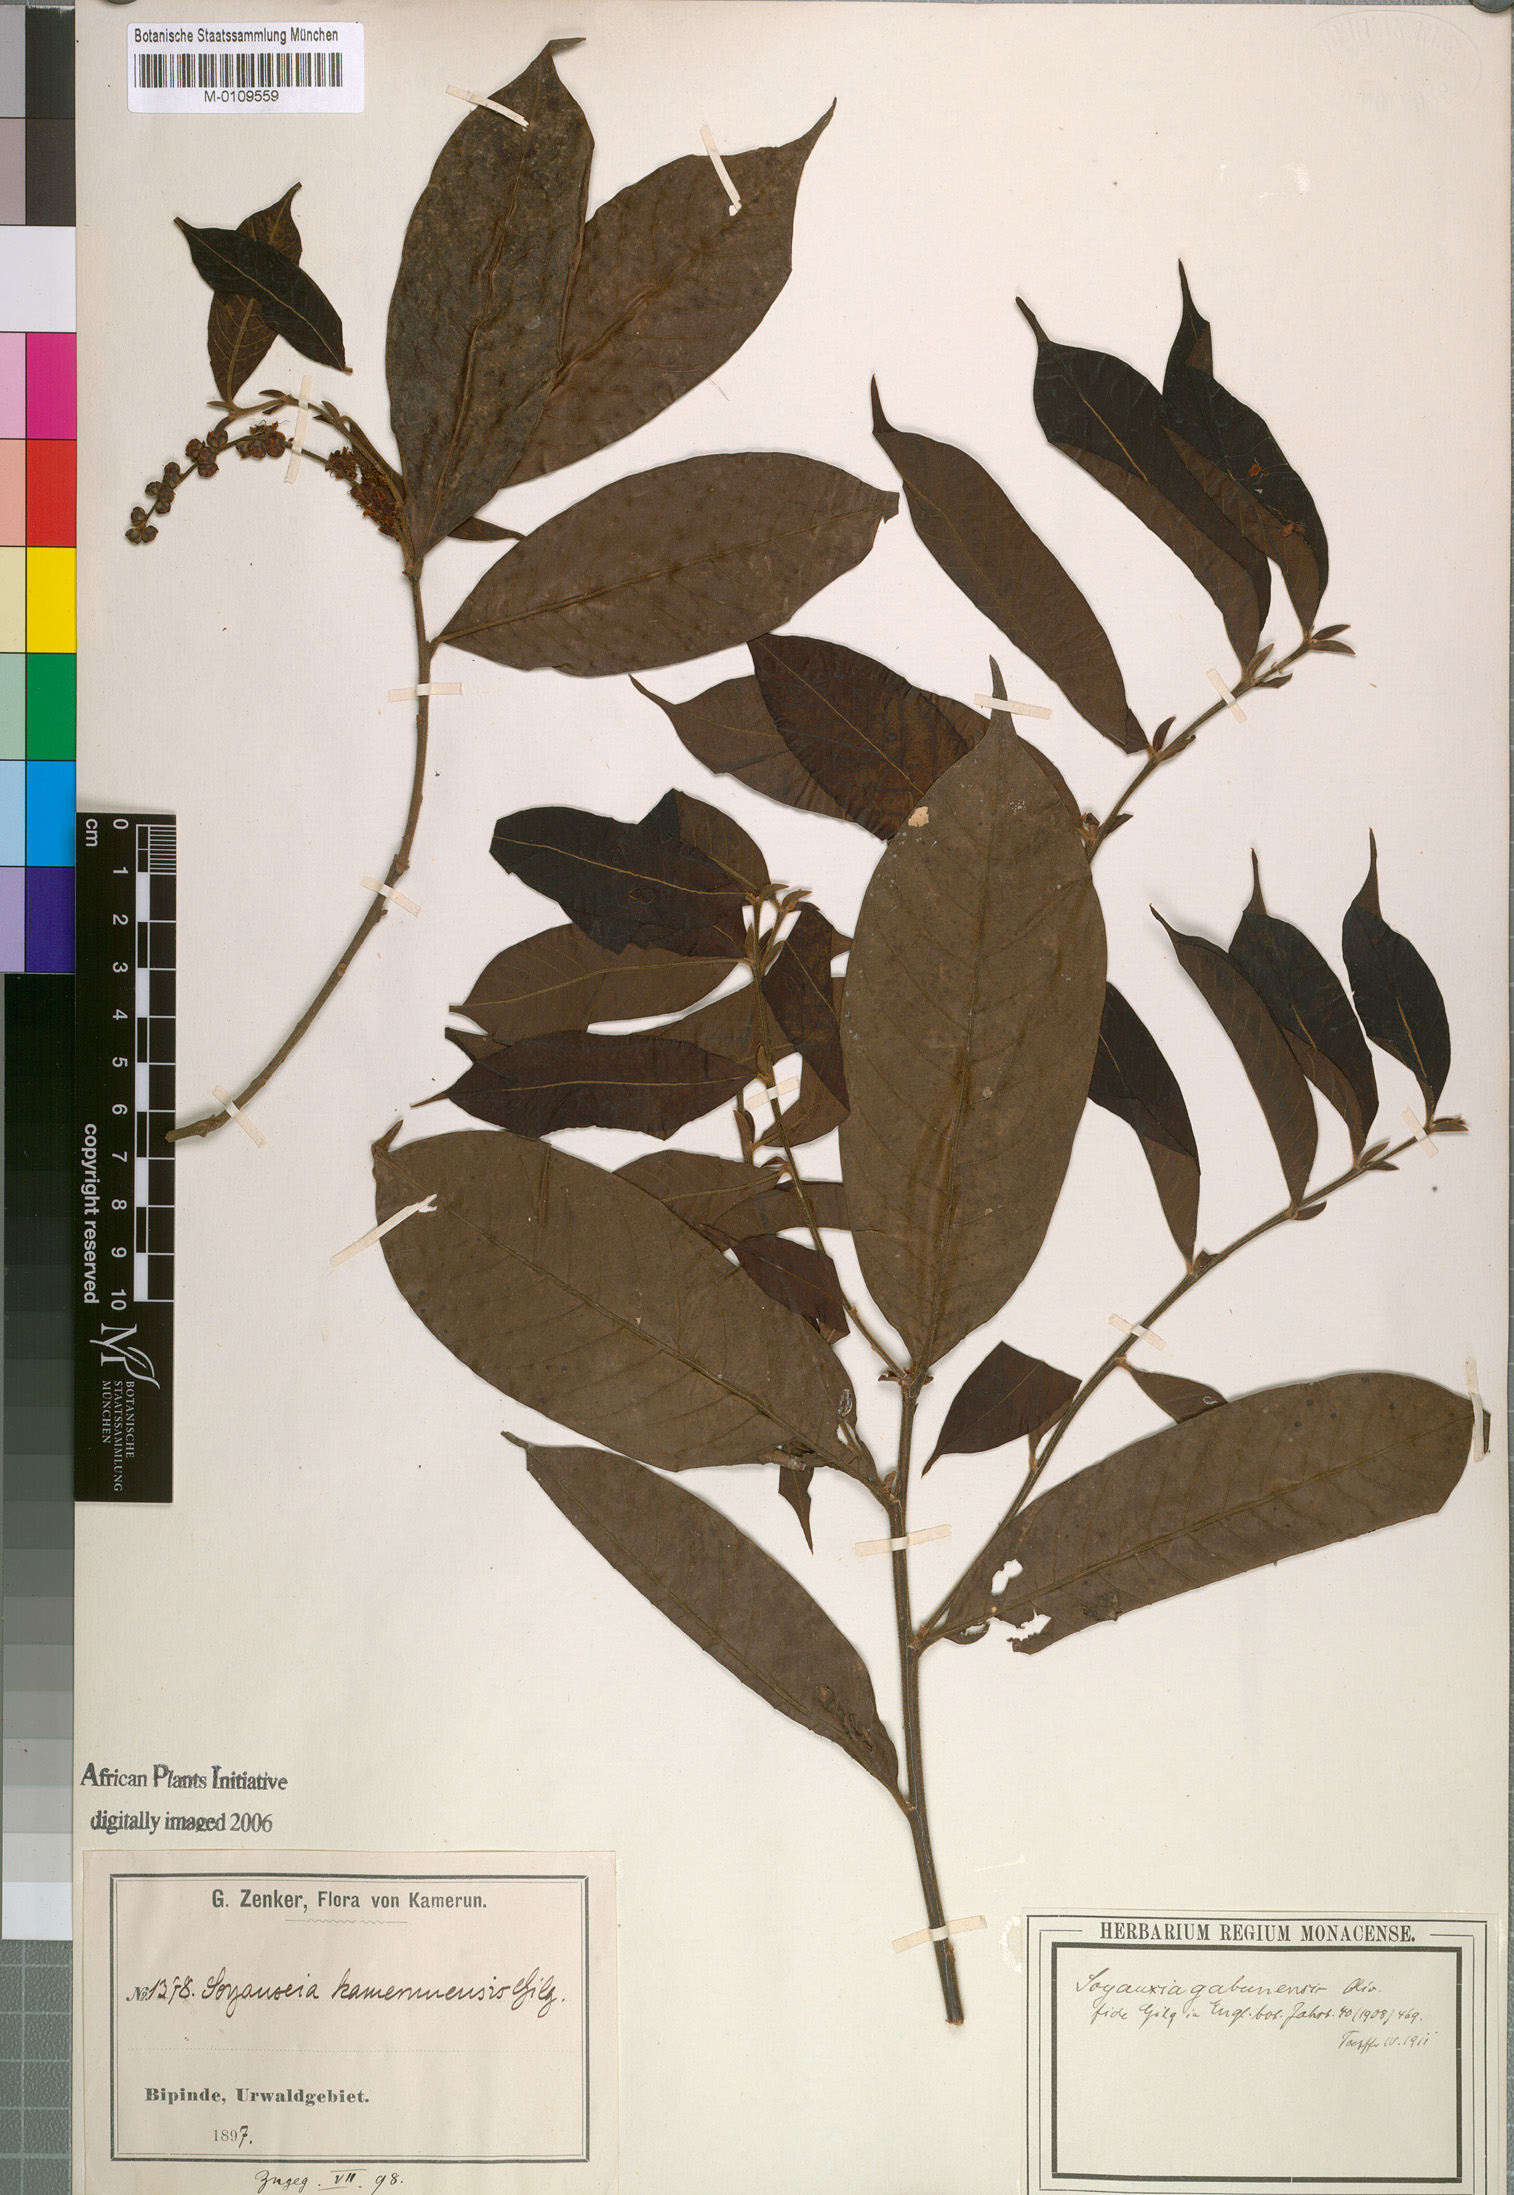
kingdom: Plantae
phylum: Tracheophyta
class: Magnoliopsida
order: Saxifragales
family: Peridiscaceae
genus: Soyauxia
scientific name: Soyauxia gabonensis
